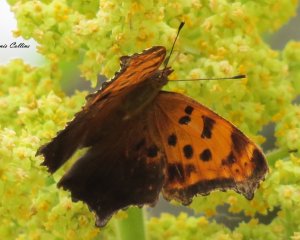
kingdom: Animalia
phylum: Arthropoda
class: Insecta
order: Lepidoptera
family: Nymphalidae
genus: Polygonia
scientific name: Polygonia comma
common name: Eastern Comma
